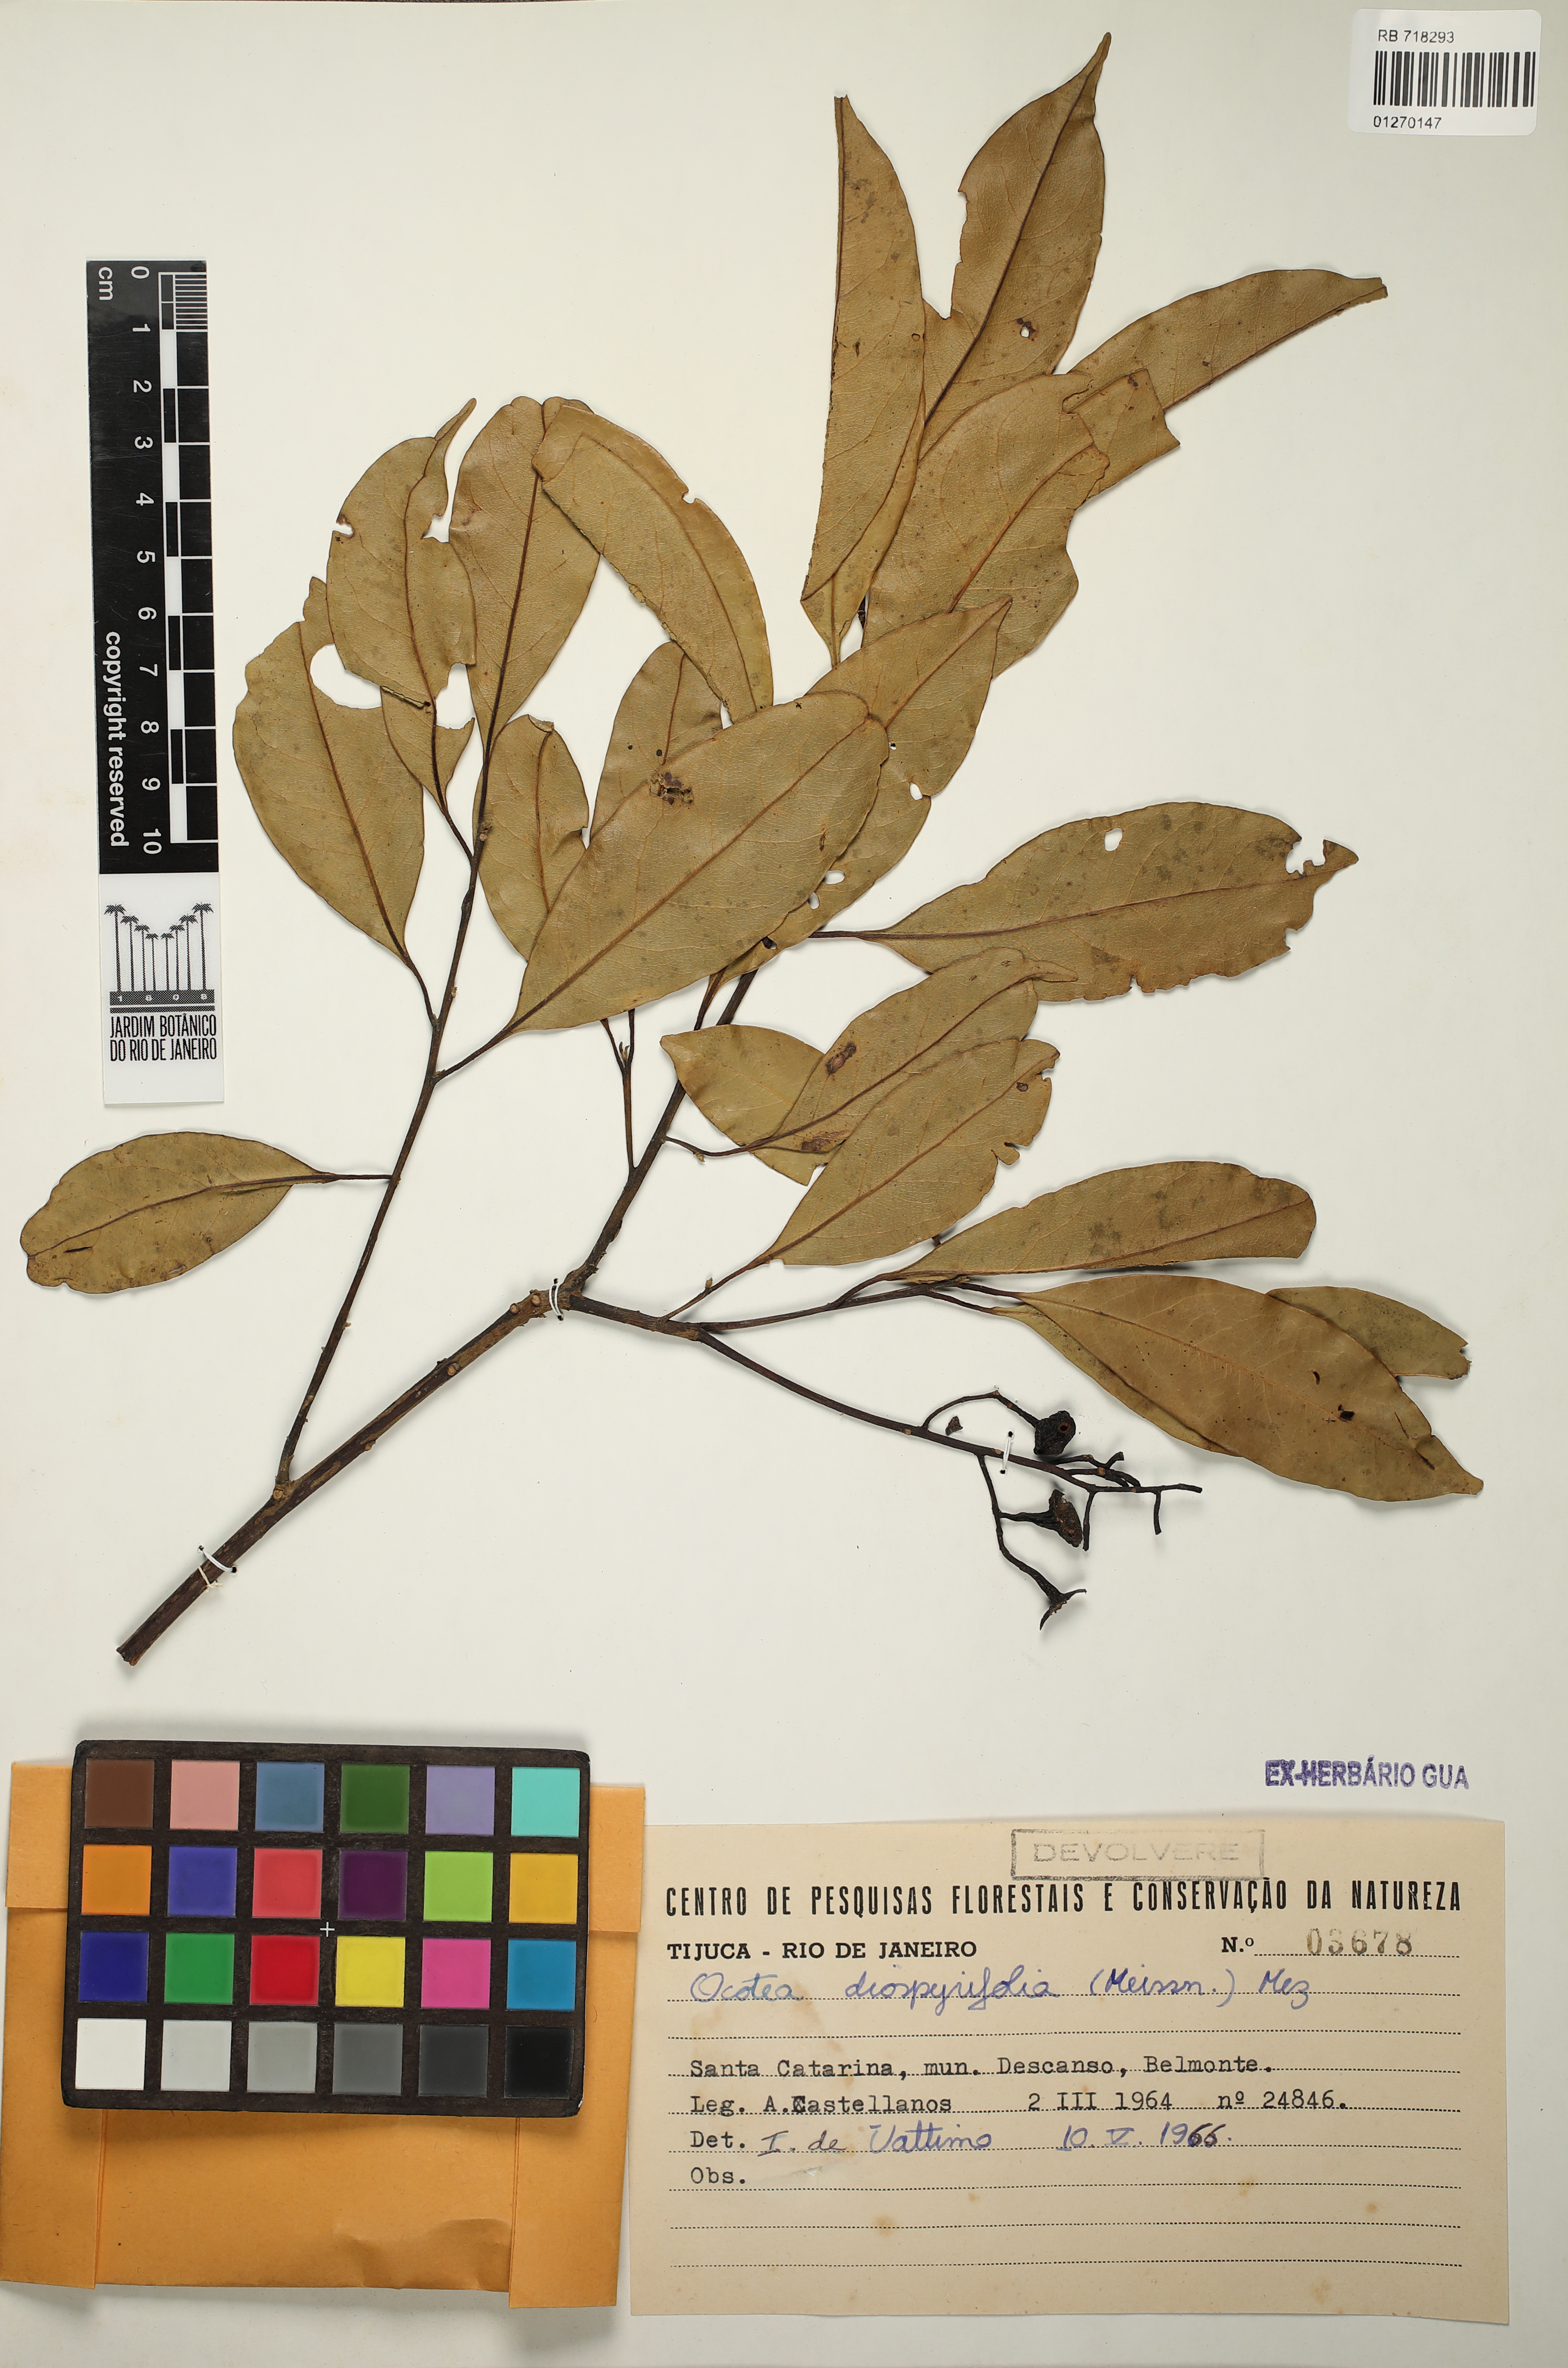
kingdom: Plantae
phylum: Tracheophyta
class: Magnoliopsida
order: Laurales
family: Lauraceae
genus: Ocotea
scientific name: Ocotea diospyrifolia
